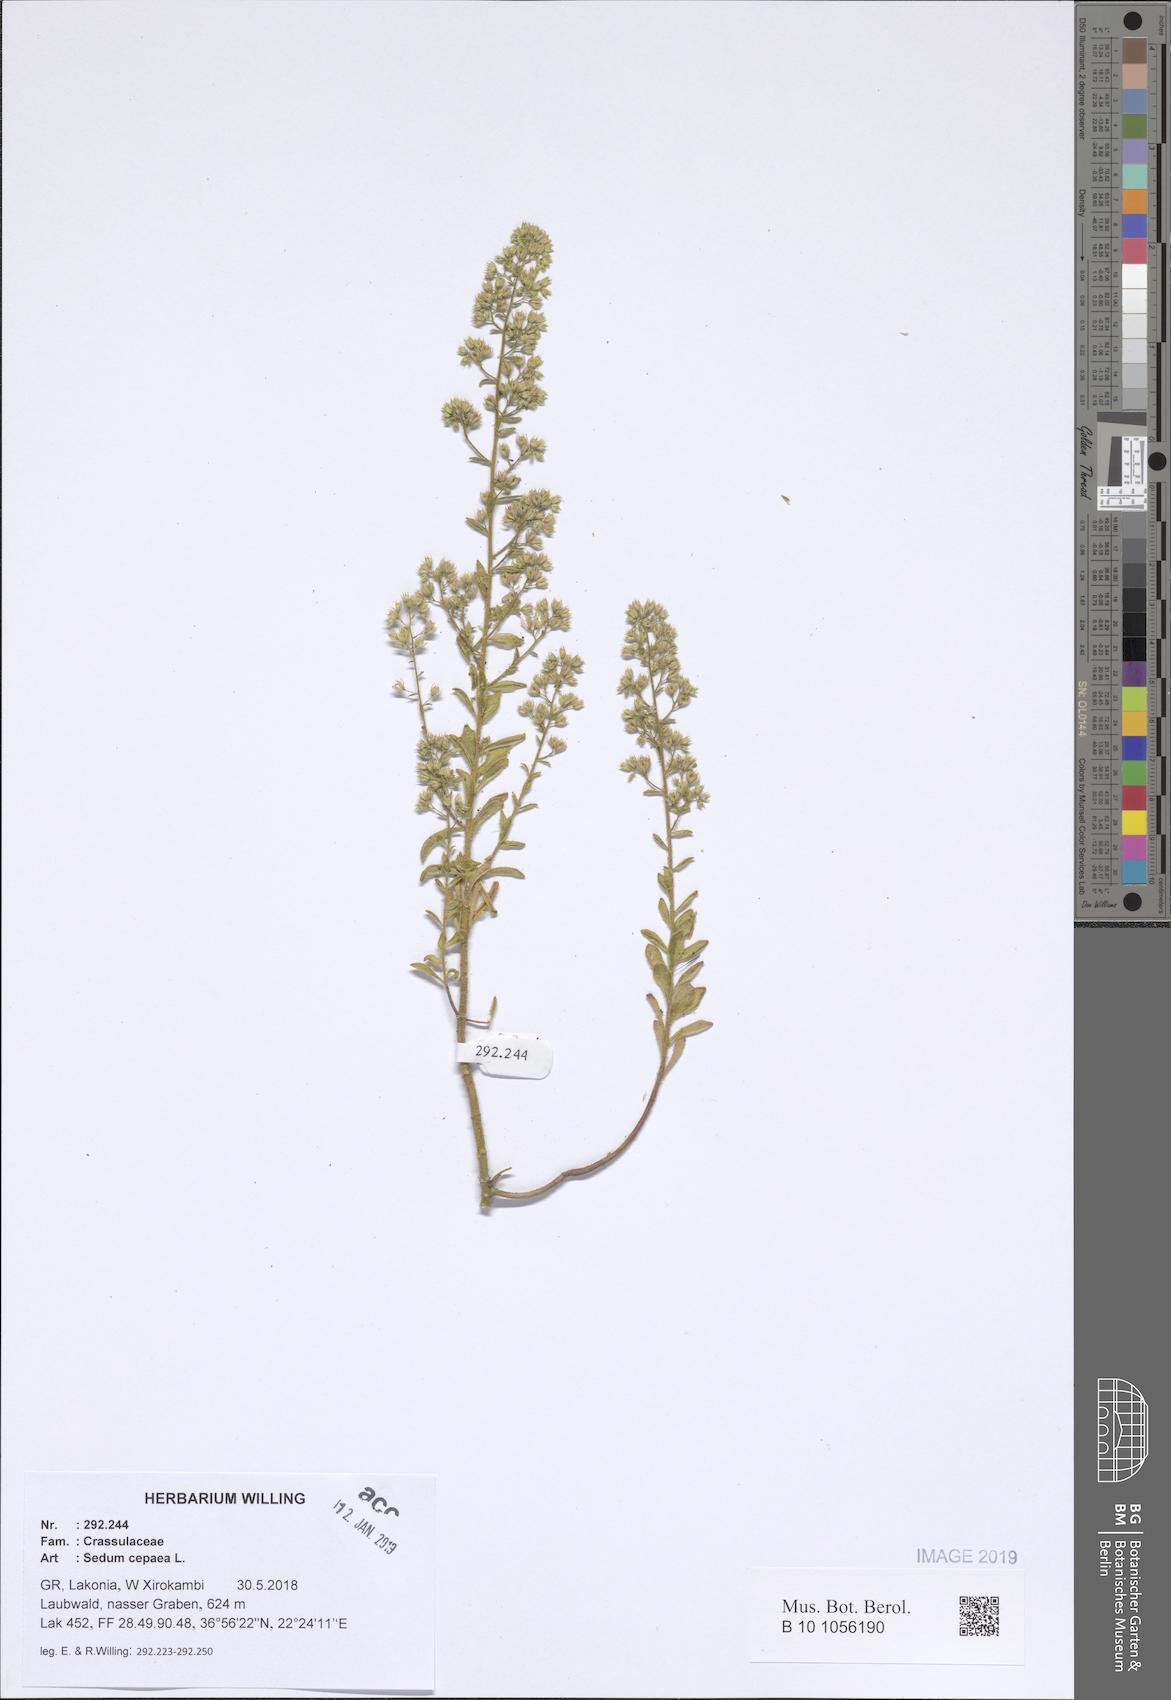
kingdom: Plantae
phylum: Tracheophyta
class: Magnoliopsida
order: Saxifragales
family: Crassulaceae
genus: Sedum
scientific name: Sedum cepaea
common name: Pink stonecrop
